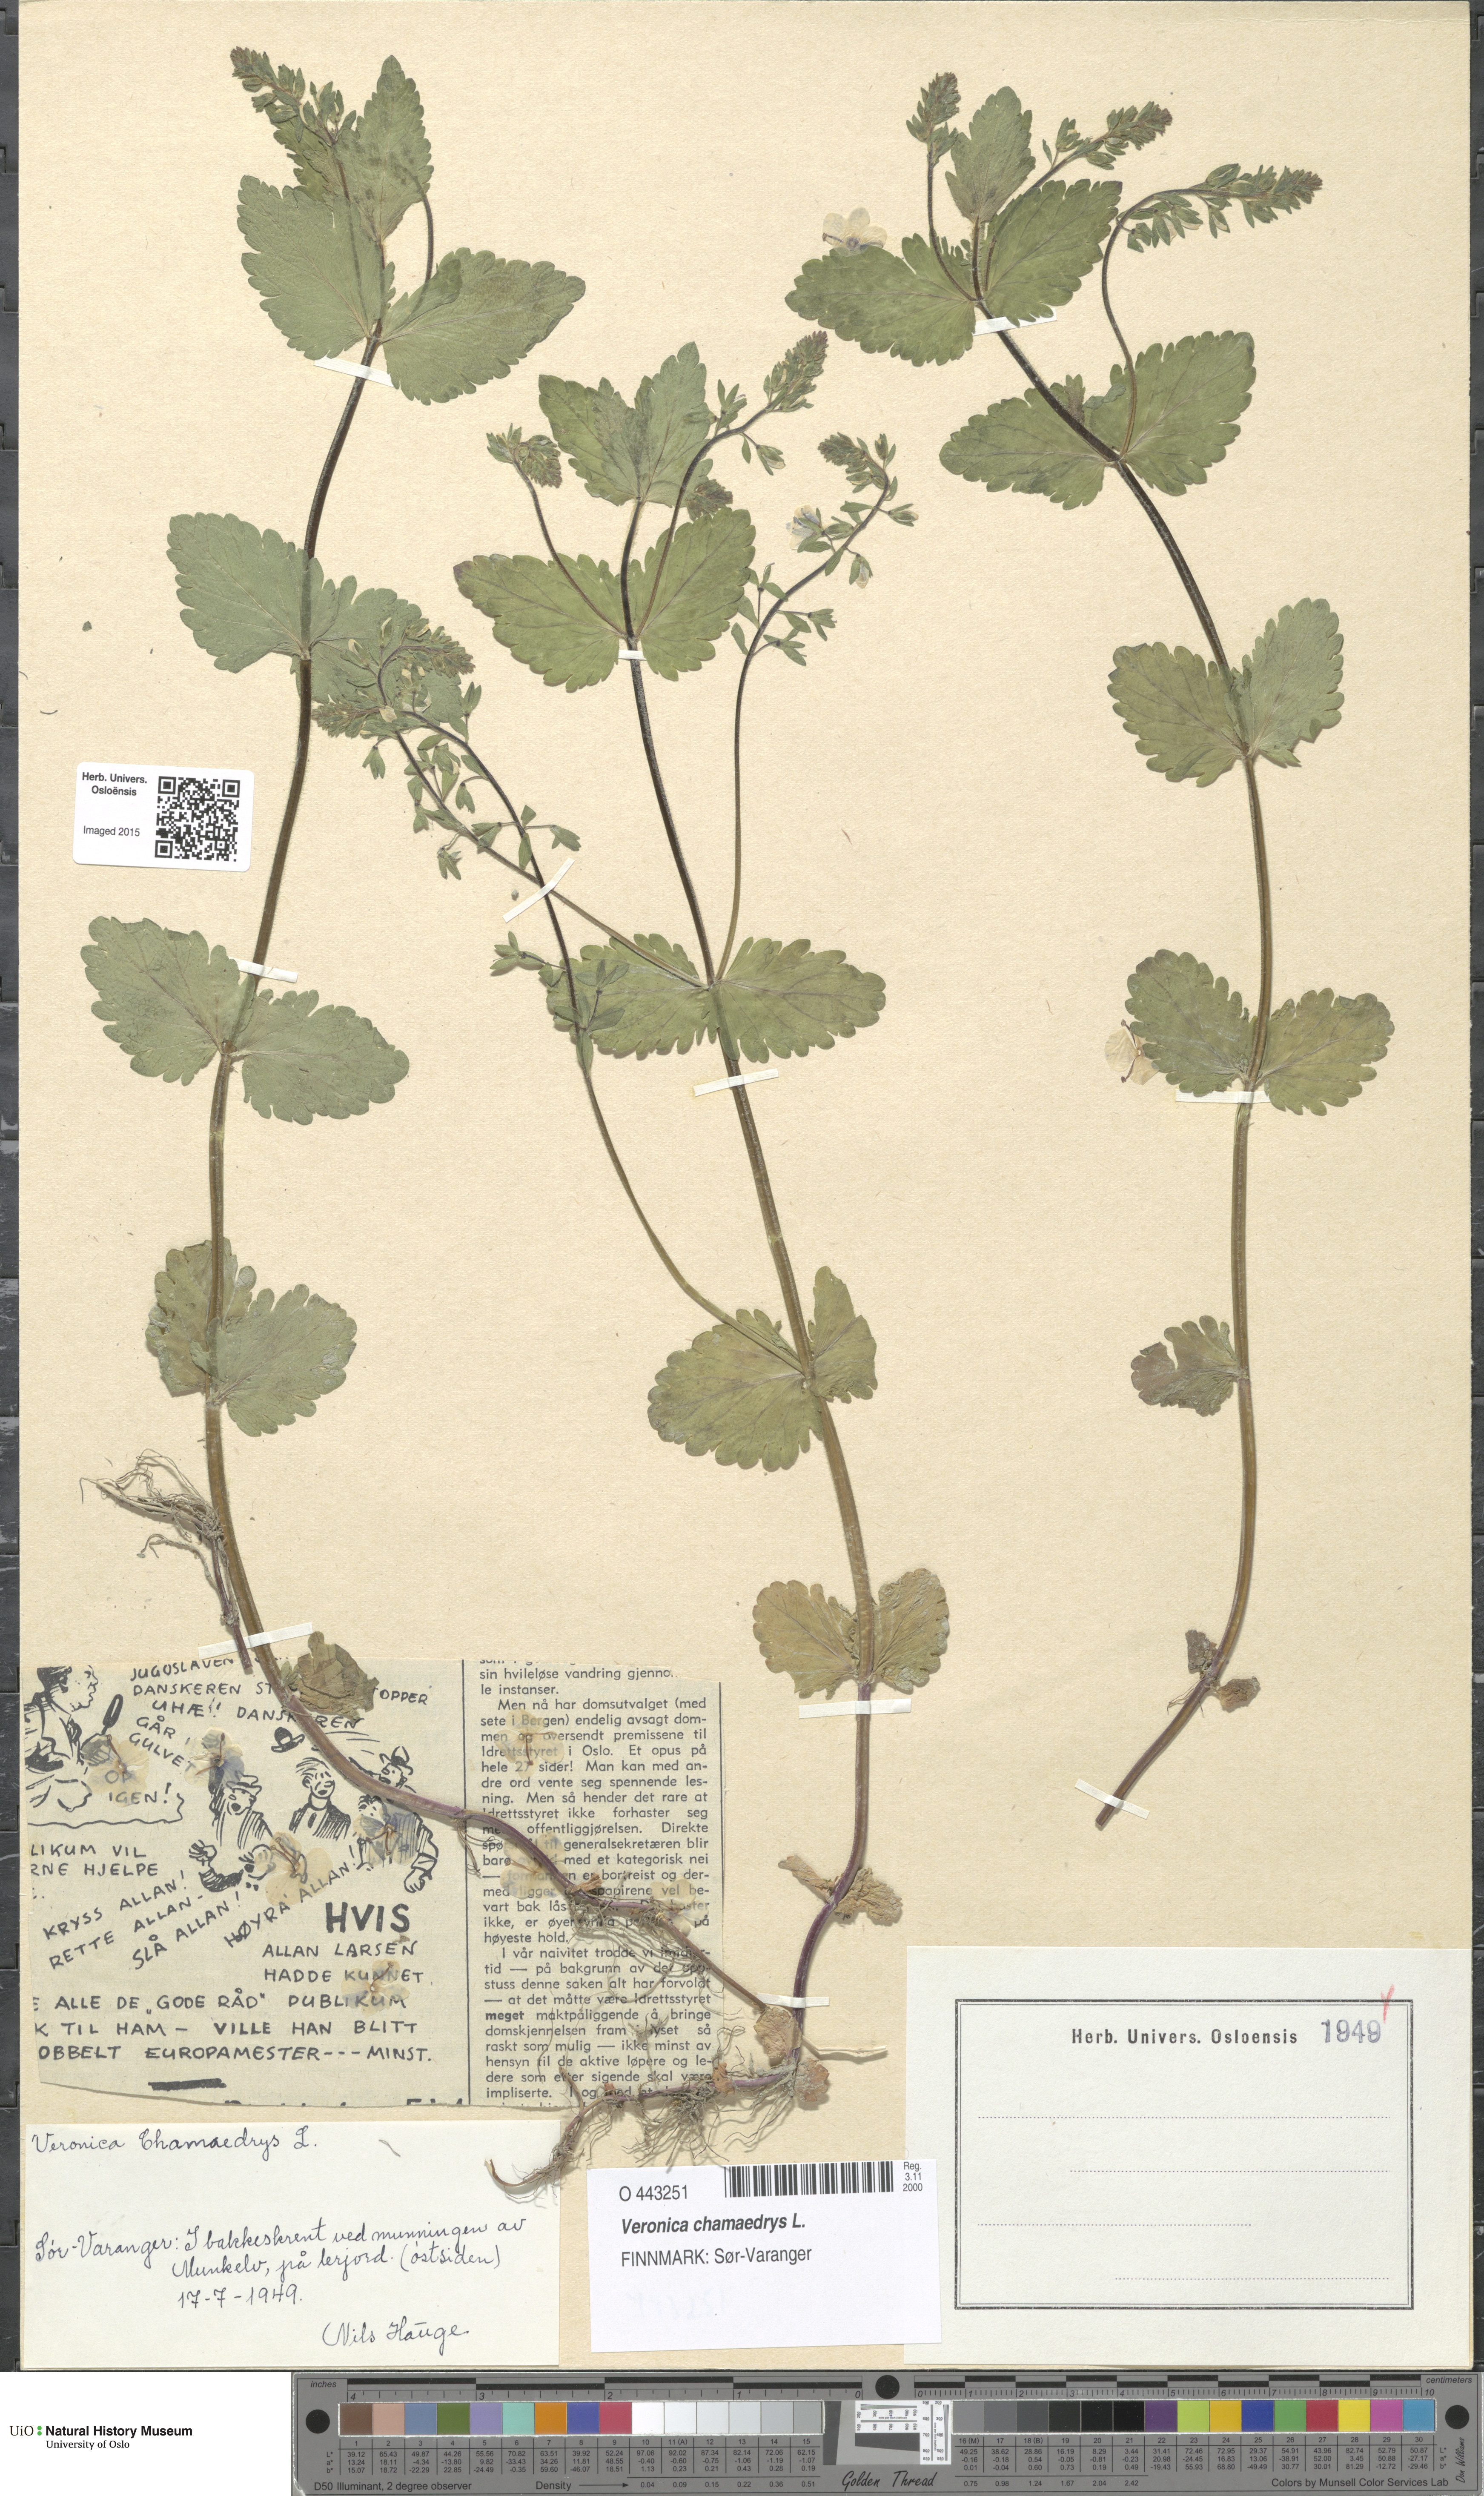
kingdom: Plantae
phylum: Tracheophyta
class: Magnoliopsida
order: Lamiales
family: Plantaginaceae
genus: Veronica
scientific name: Veronica chamaedrys
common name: Germander speedwell
